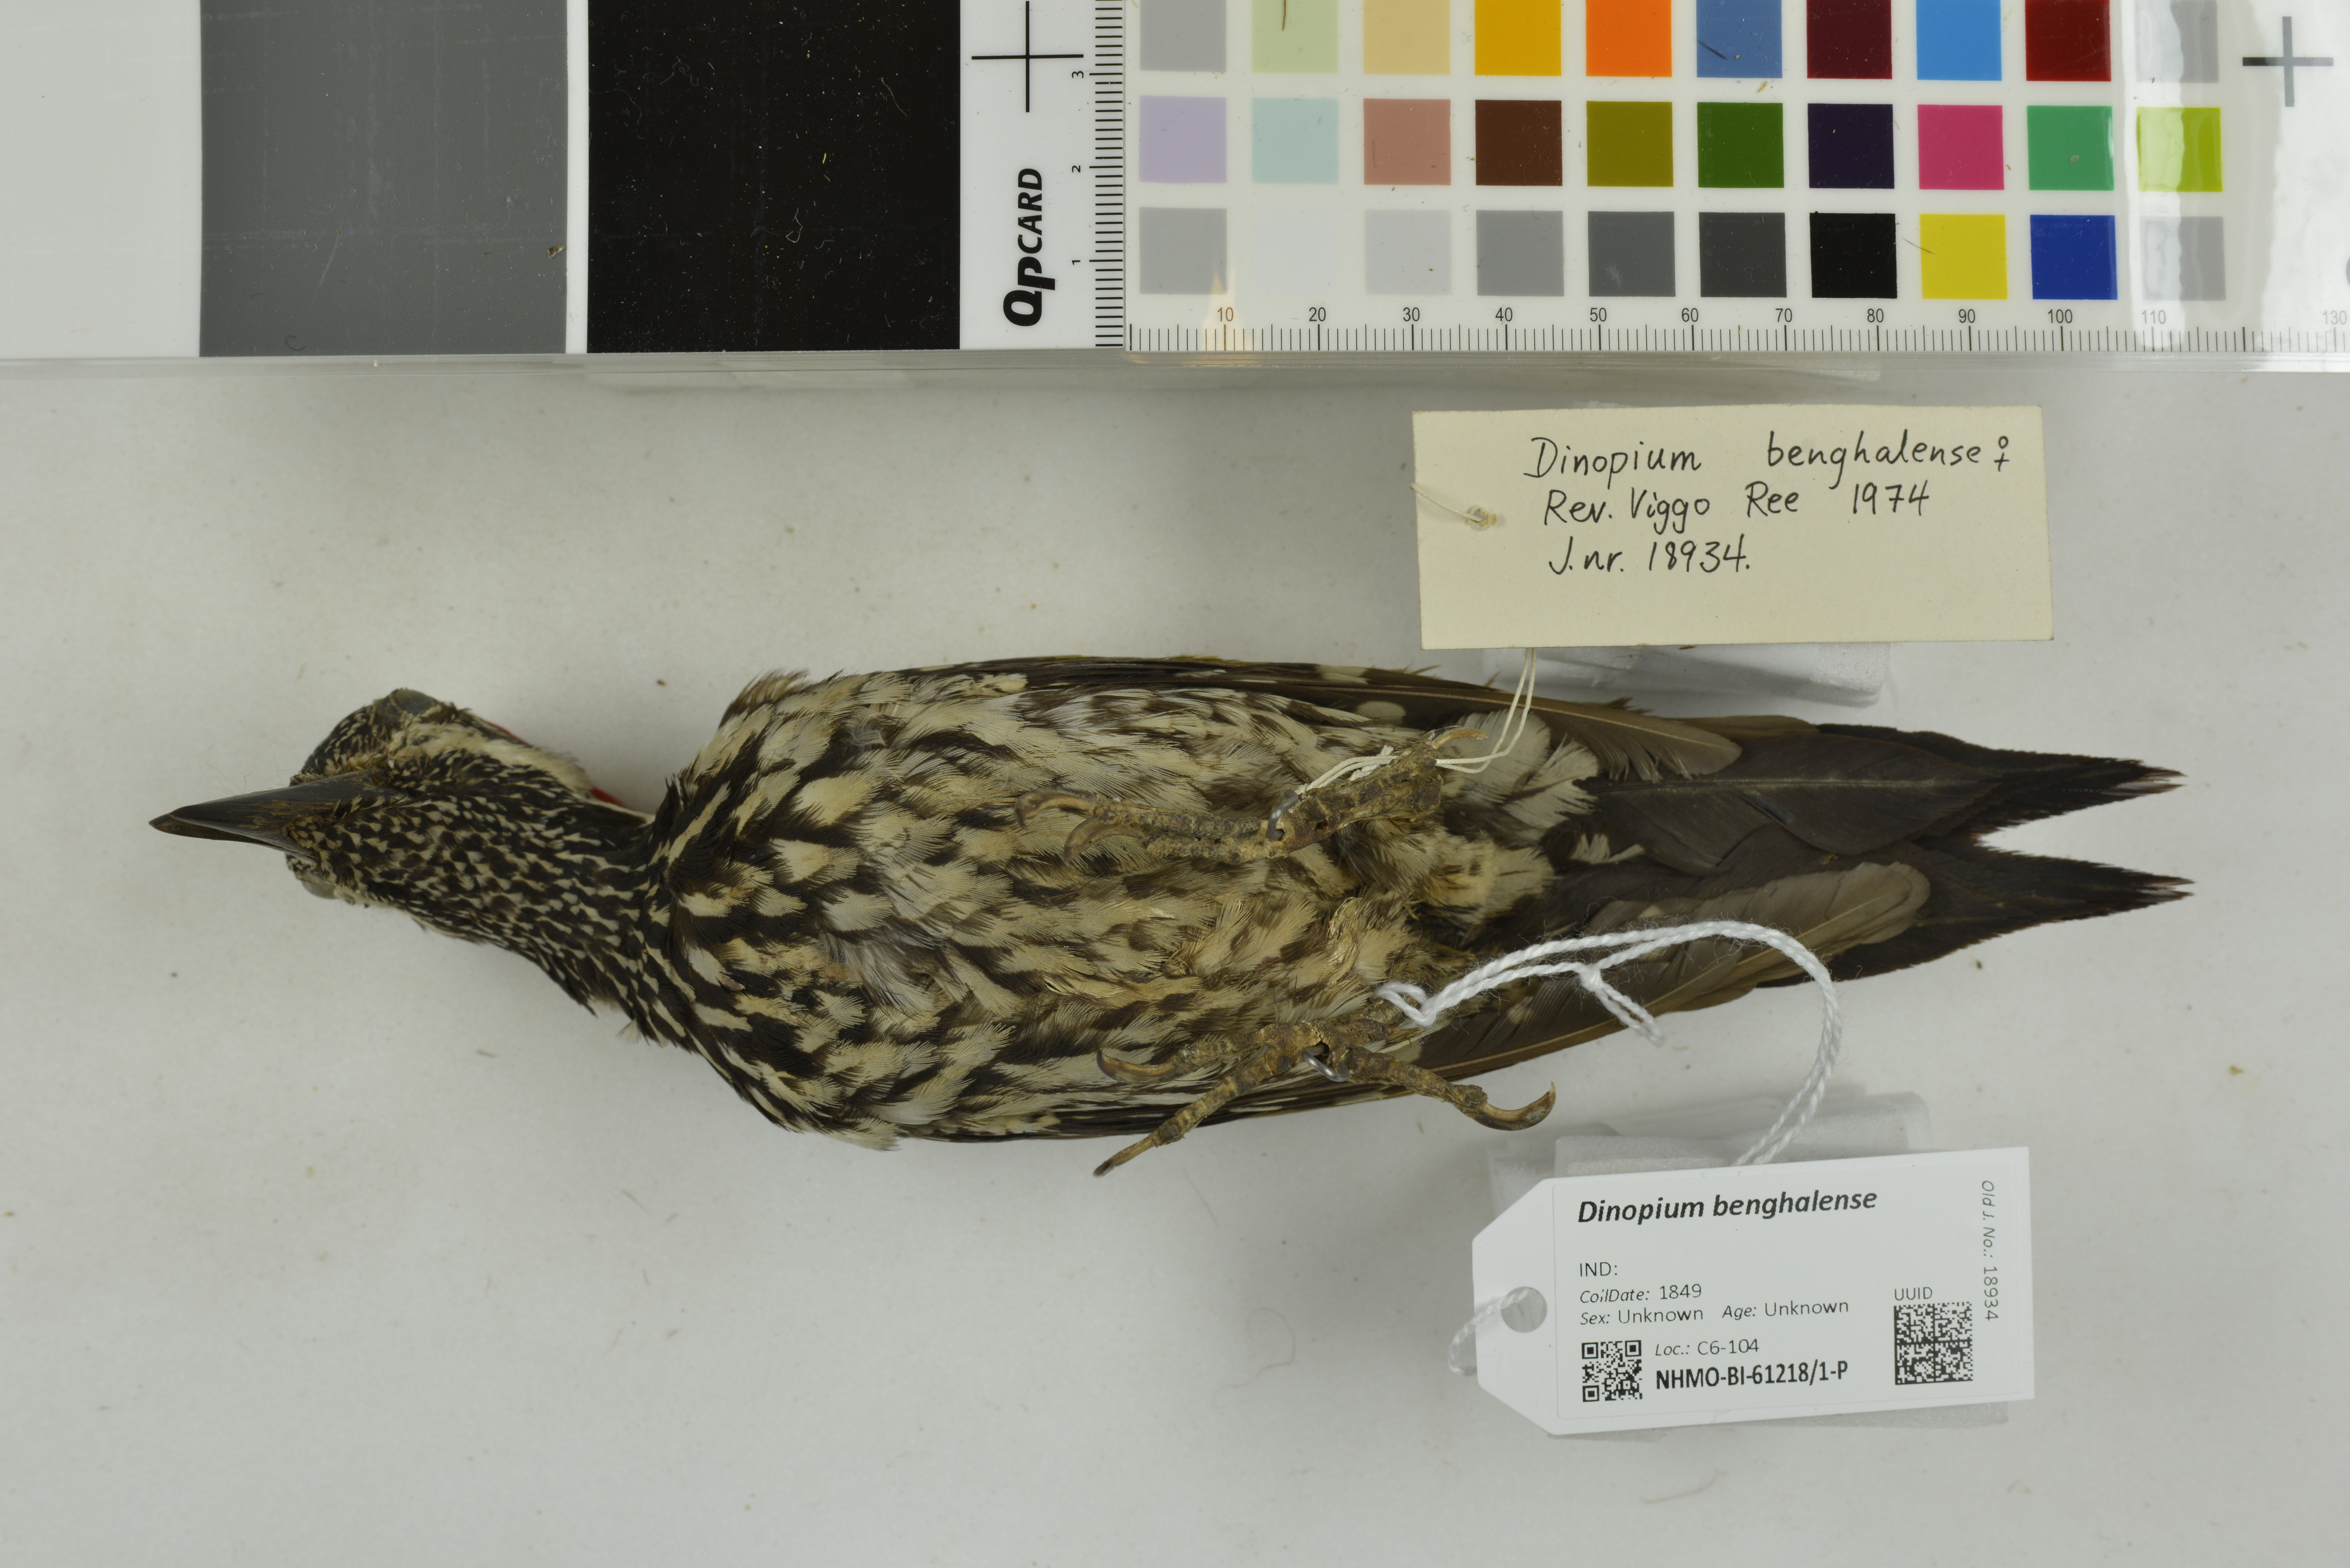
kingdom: Animalia
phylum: Chordata
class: Aves
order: Piciformes
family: Picidae
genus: Dinopium
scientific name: Dinopium benghalense
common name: Black-rumped flameback
